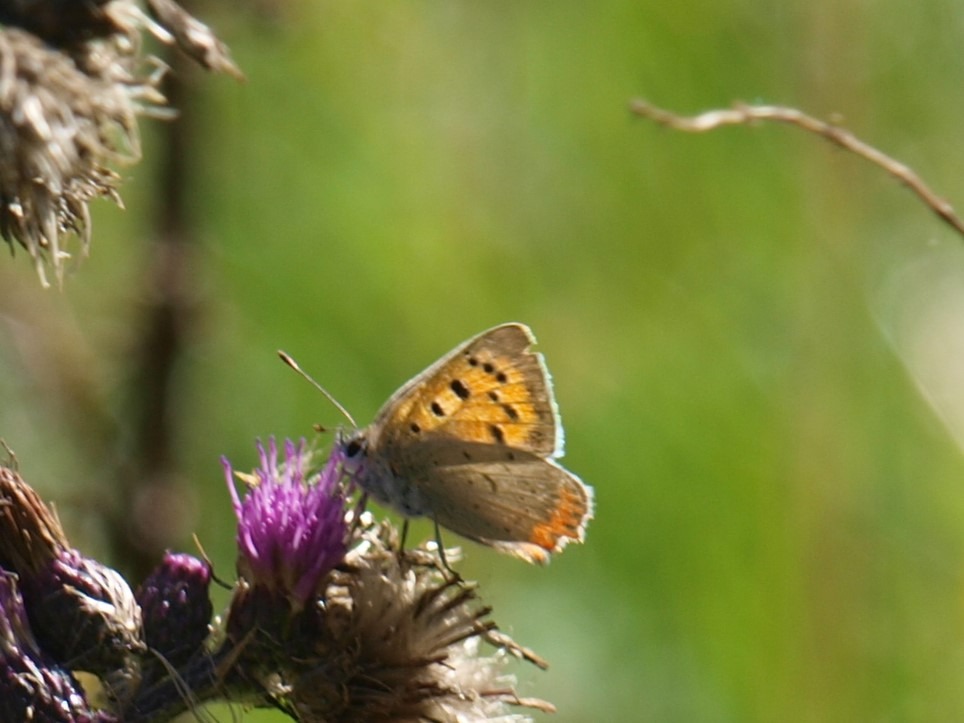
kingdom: Animalia
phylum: Arthropoda
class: Insecta
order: Lepidoptera
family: Lycaenidae
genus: Lycaena
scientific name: Lycaena phlaeas
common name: Lille ildfugl
